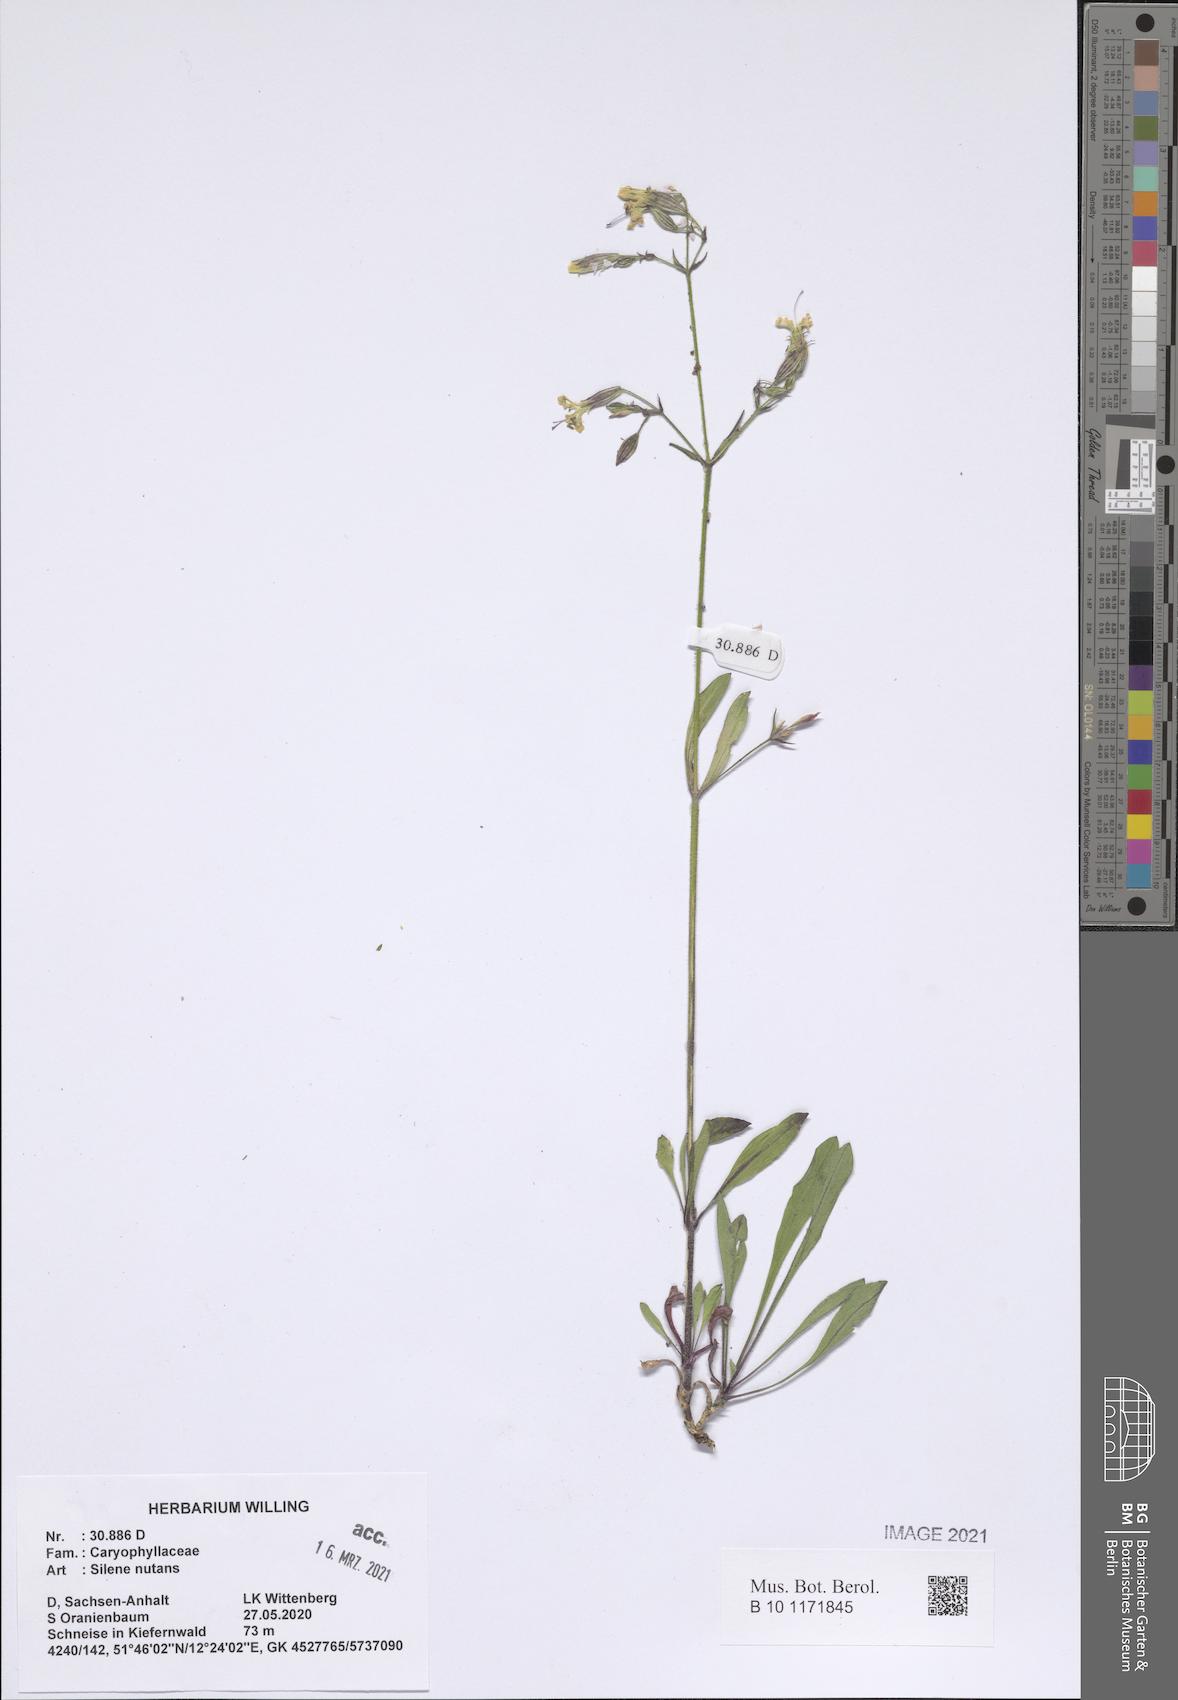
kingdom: Plantae
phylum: Tracheophyta
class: Magnoliopsida
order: Caryophyllales
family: Caryophyllaceae
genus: Silene
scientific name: Silene nutans
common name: Nottingham catchfly
